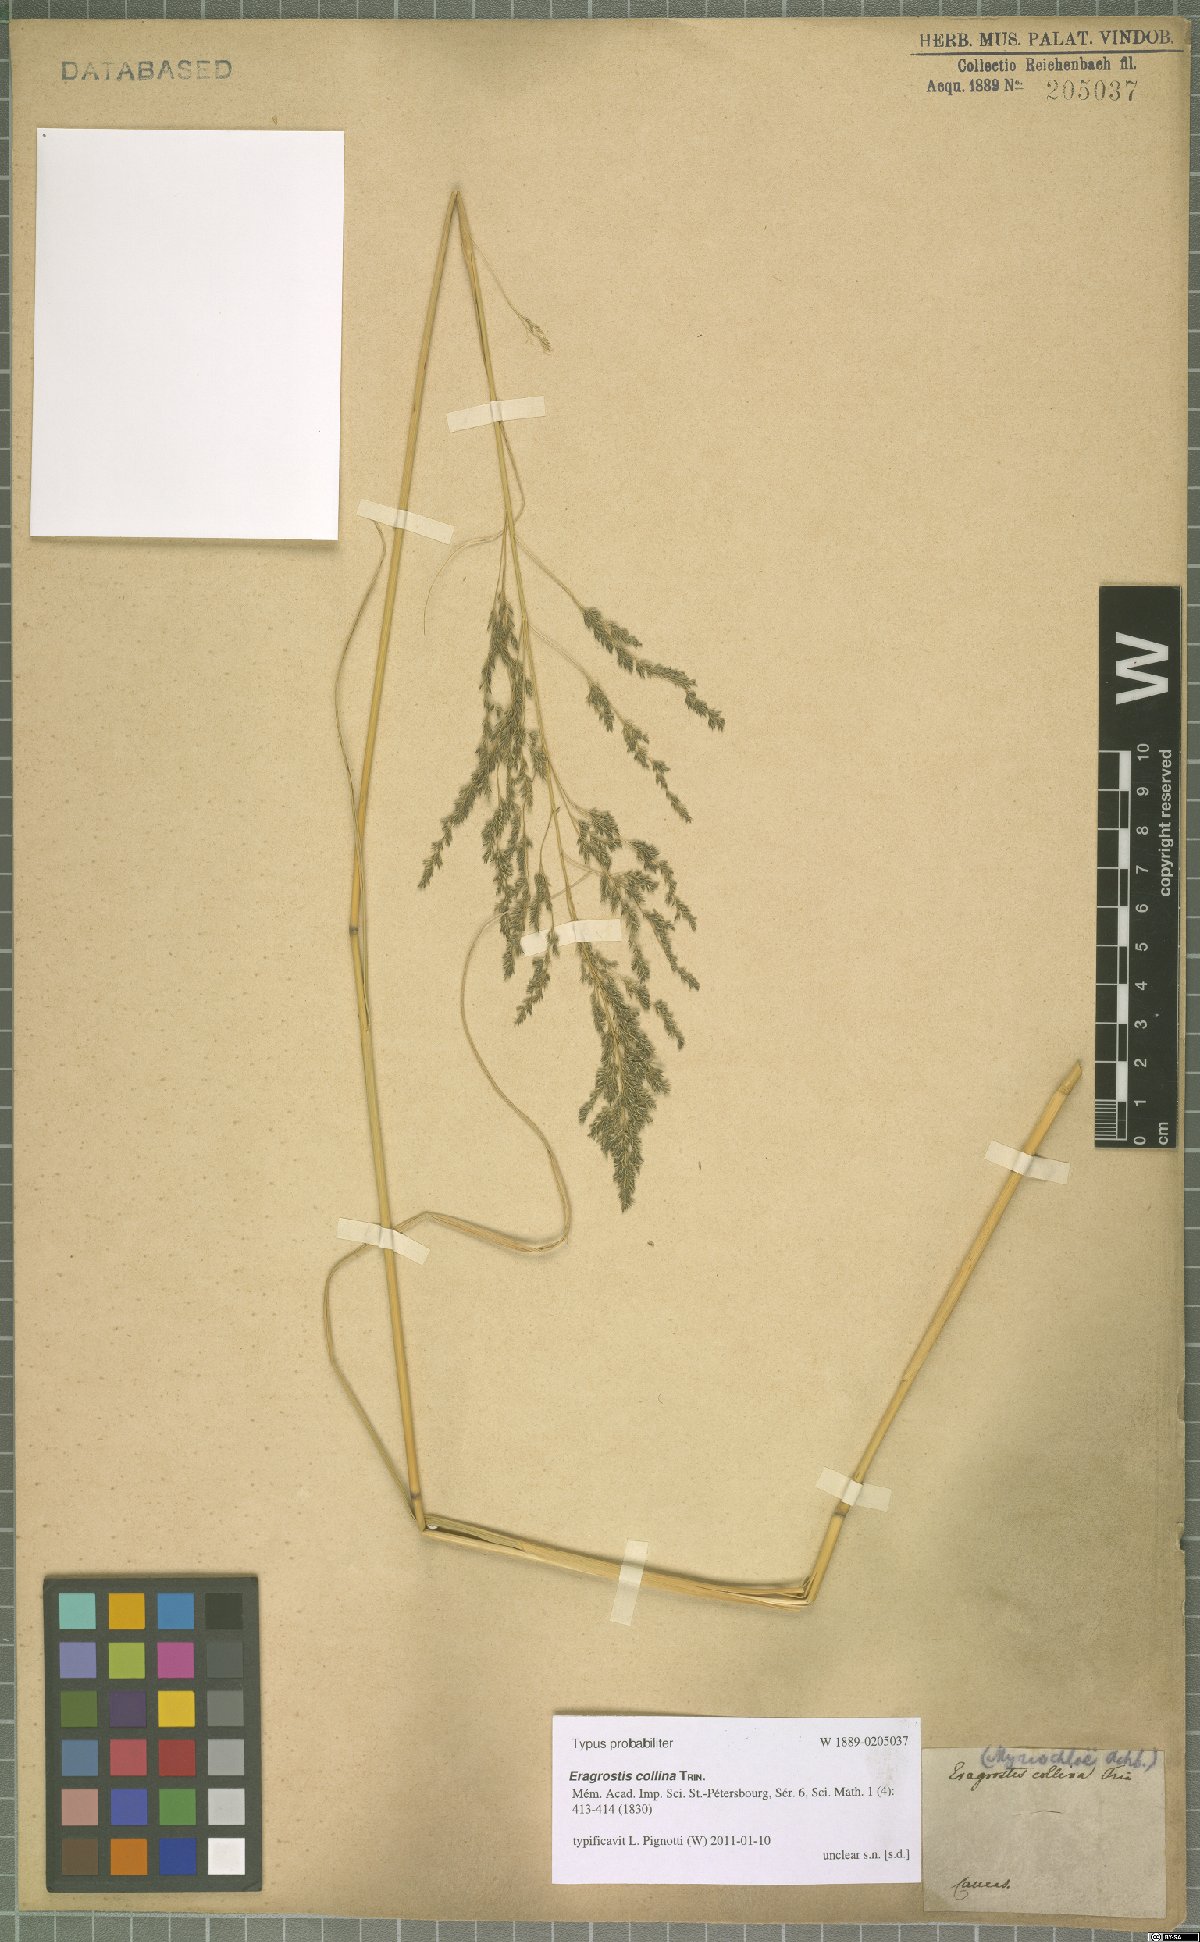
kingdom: Plantae
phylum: Tracheophyta
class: Liliopsida
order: Poales
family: Poaceae
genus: Eragrostis
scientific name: Eragrostis collina
